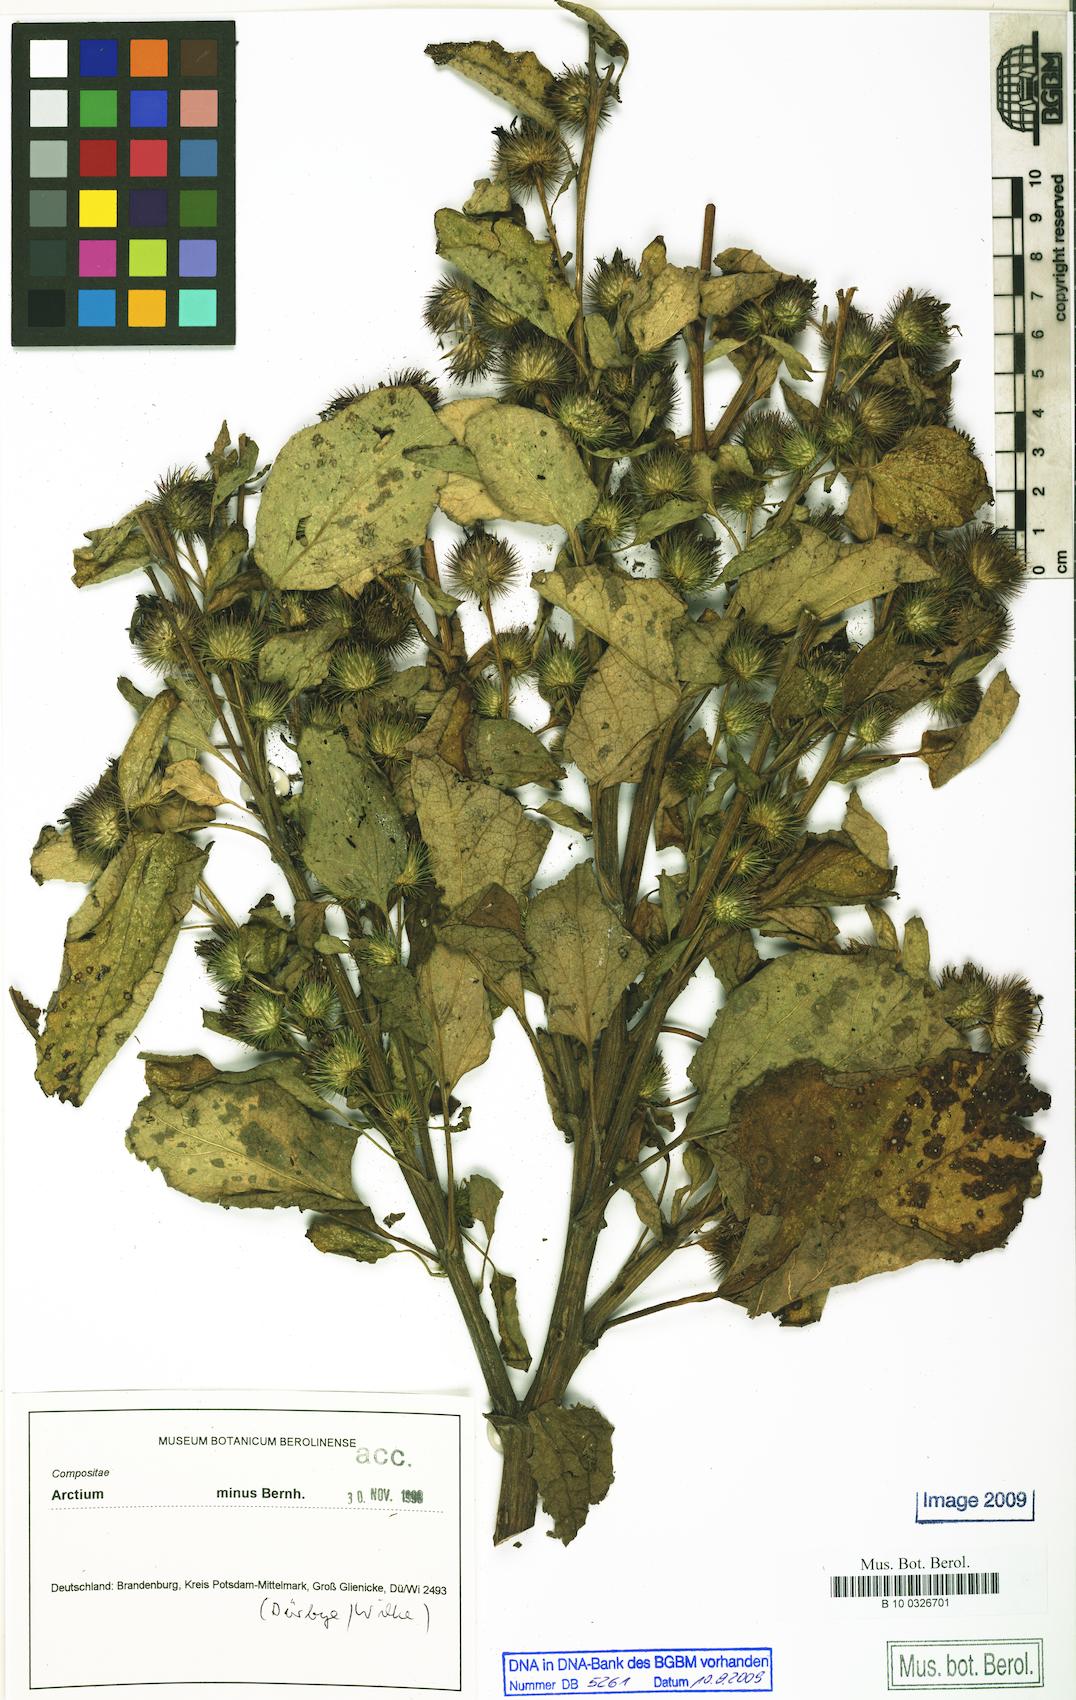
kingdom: Plantae
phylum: Tracheophyta
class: Magnoliopsida
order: Asterales
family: Asteraceae
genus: Arctium
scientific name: Arctium minus
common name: Lesser burdock
